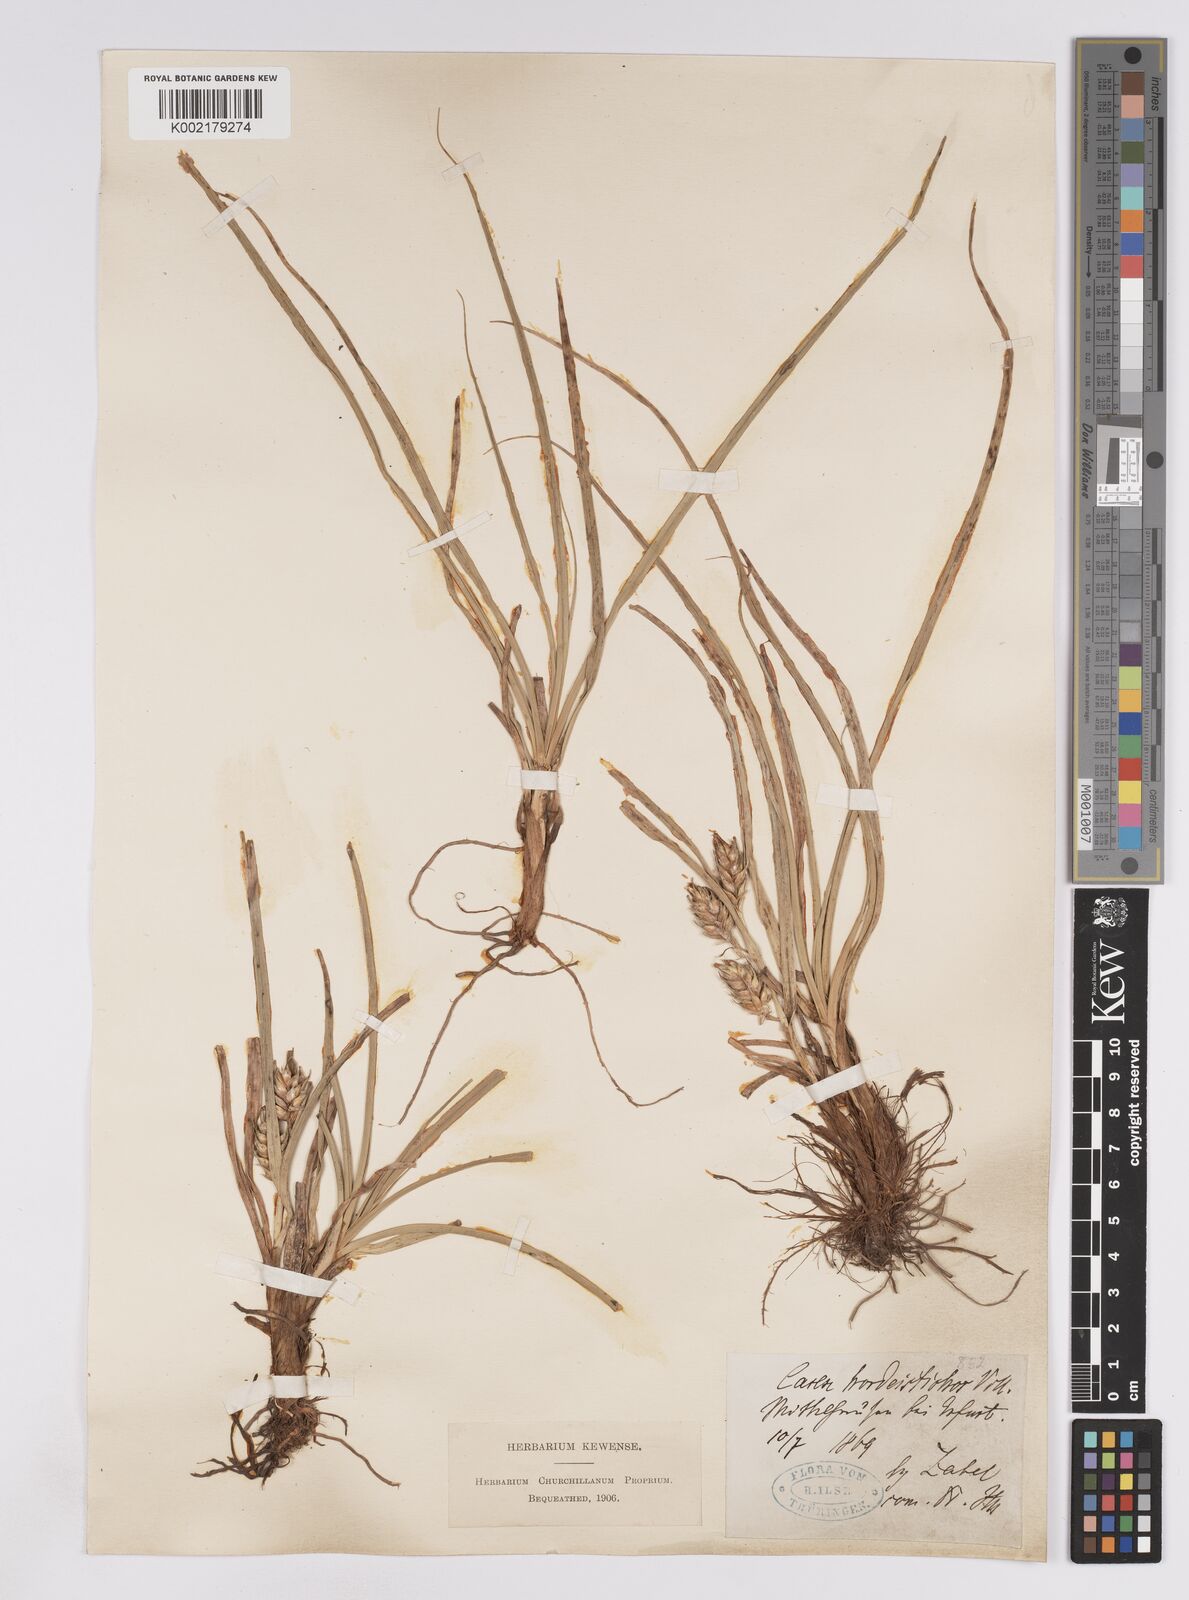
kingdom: Plantae
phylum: Tracheophyta
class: Liliopsida
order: Poales
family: Cyperaceae
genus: Carex
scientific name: Carex hordeistichos
